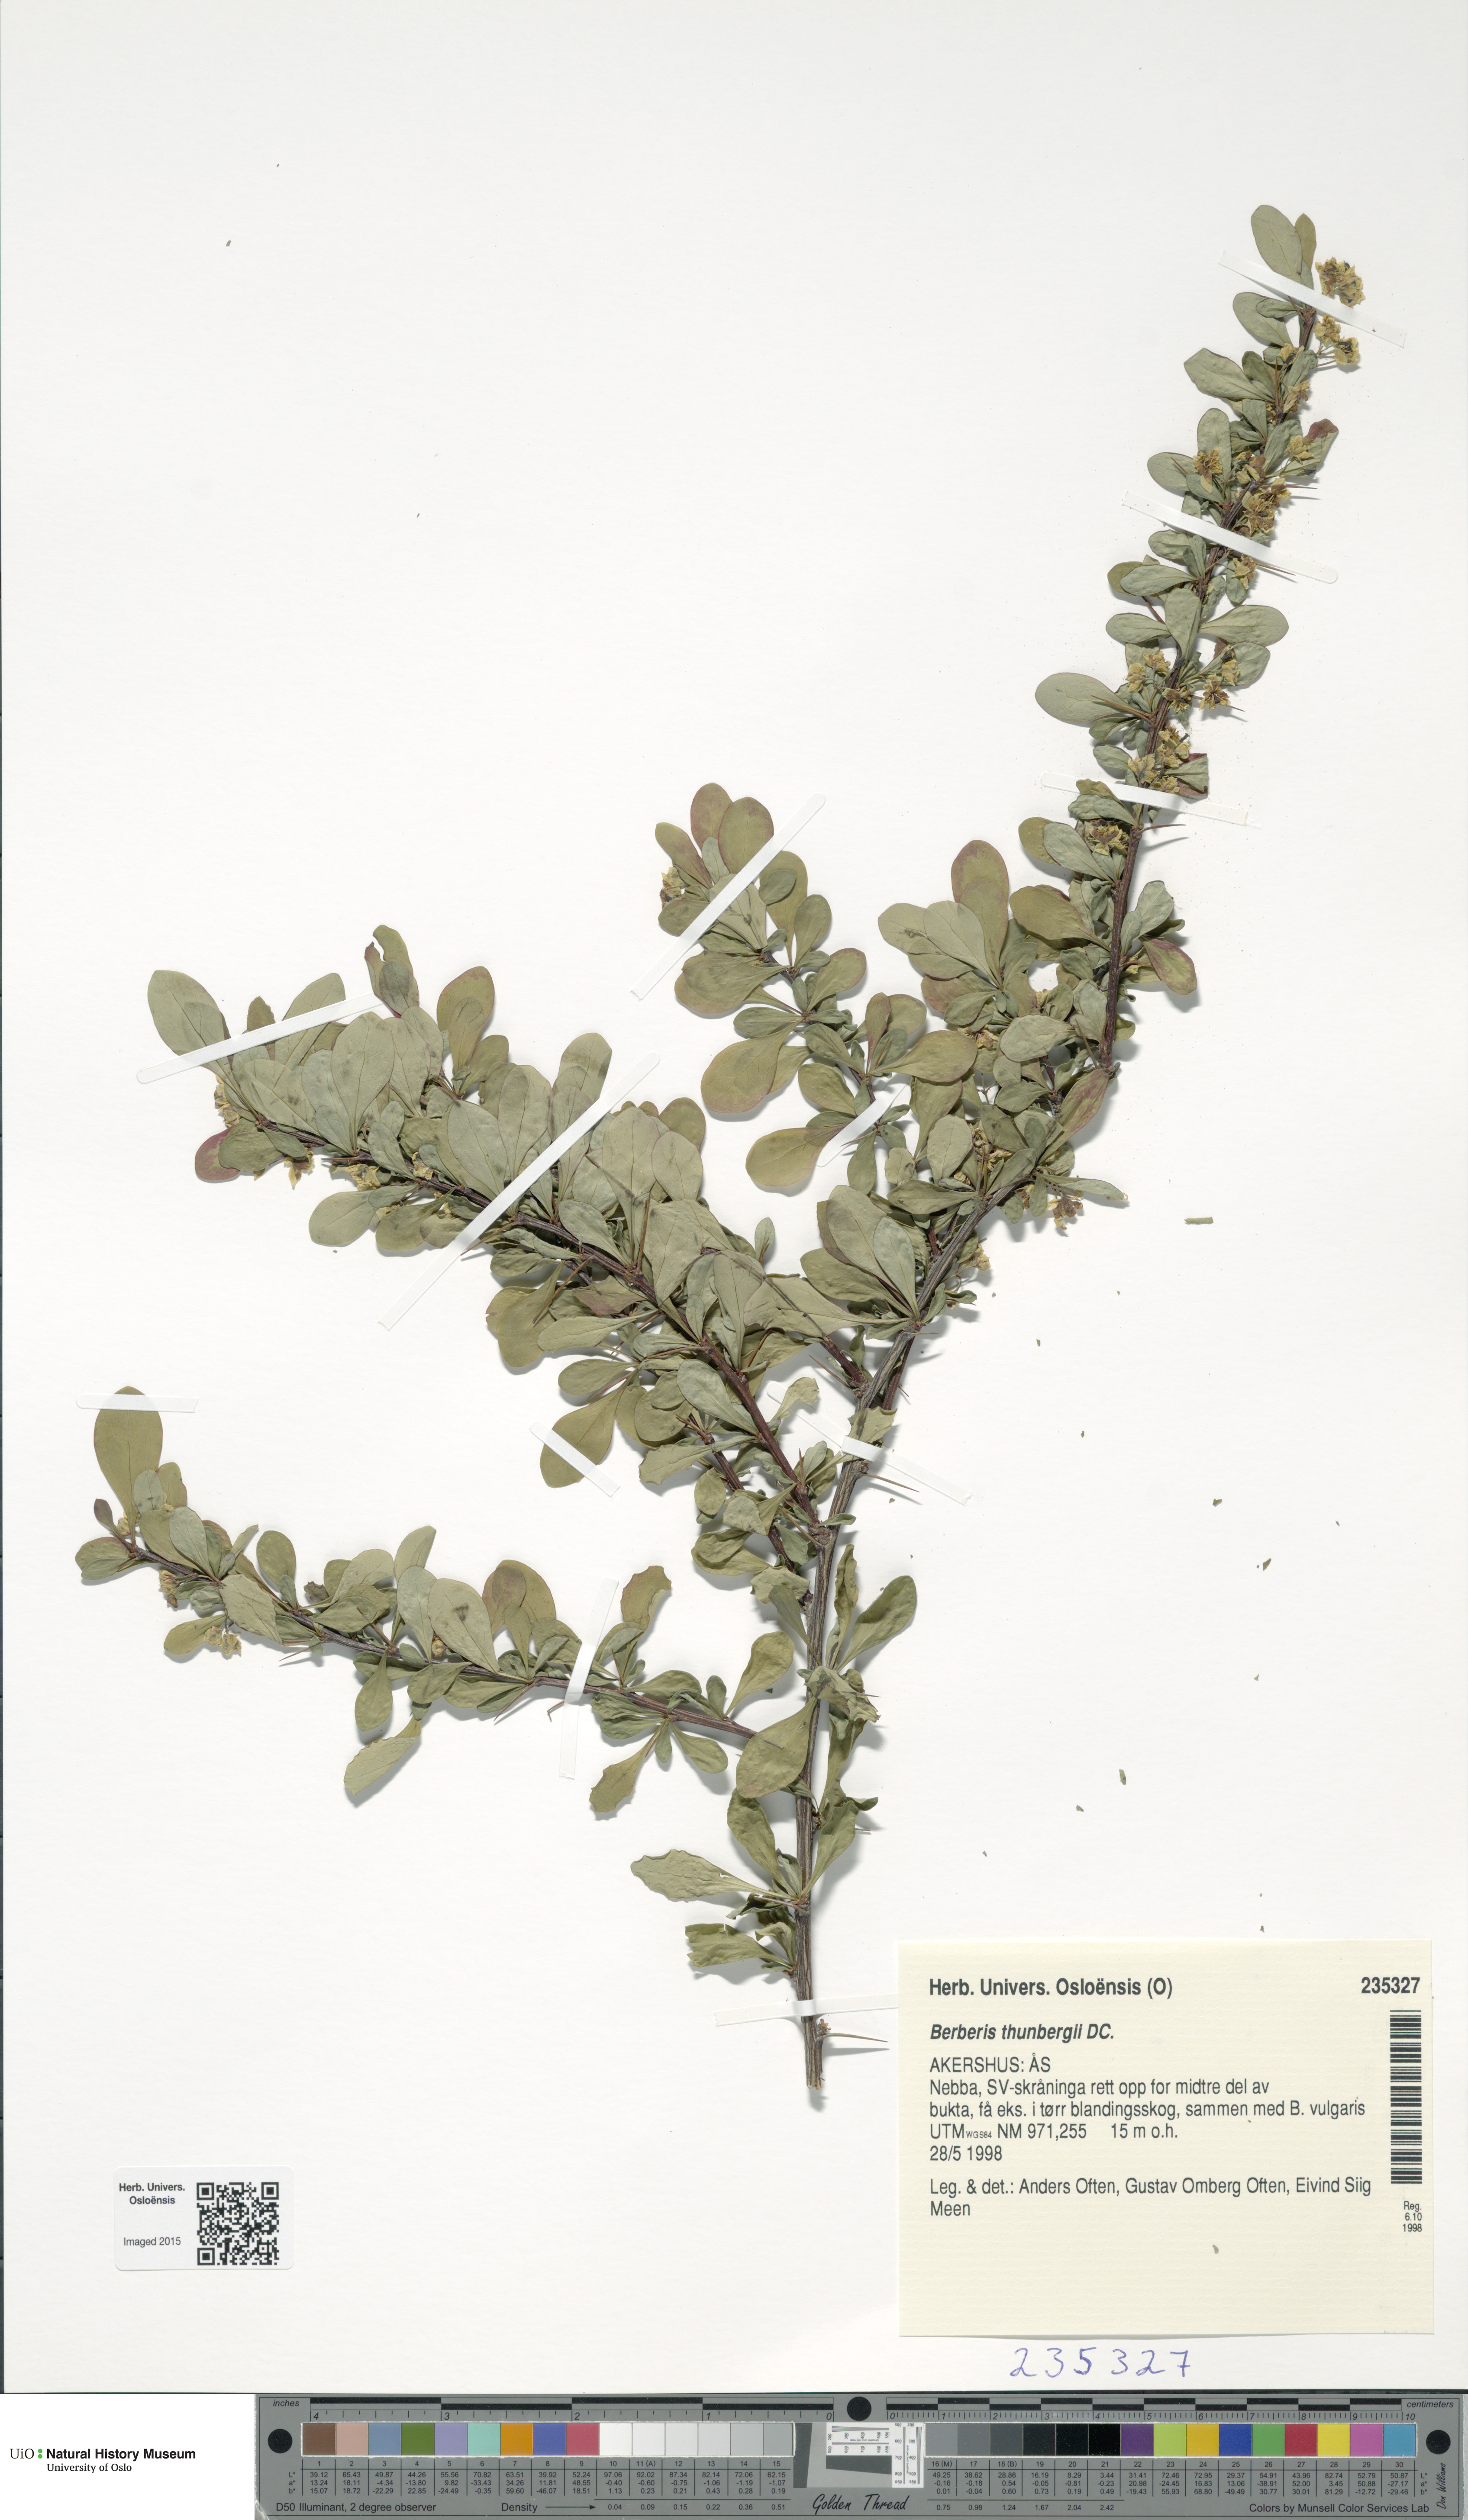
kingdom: Plantae
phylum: Tracheophyta
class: Magnoliopsida
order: Ranunculales
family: Berberidaceae
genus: Berberis
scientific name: Berberis thunbergii
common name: Japanese barberry
